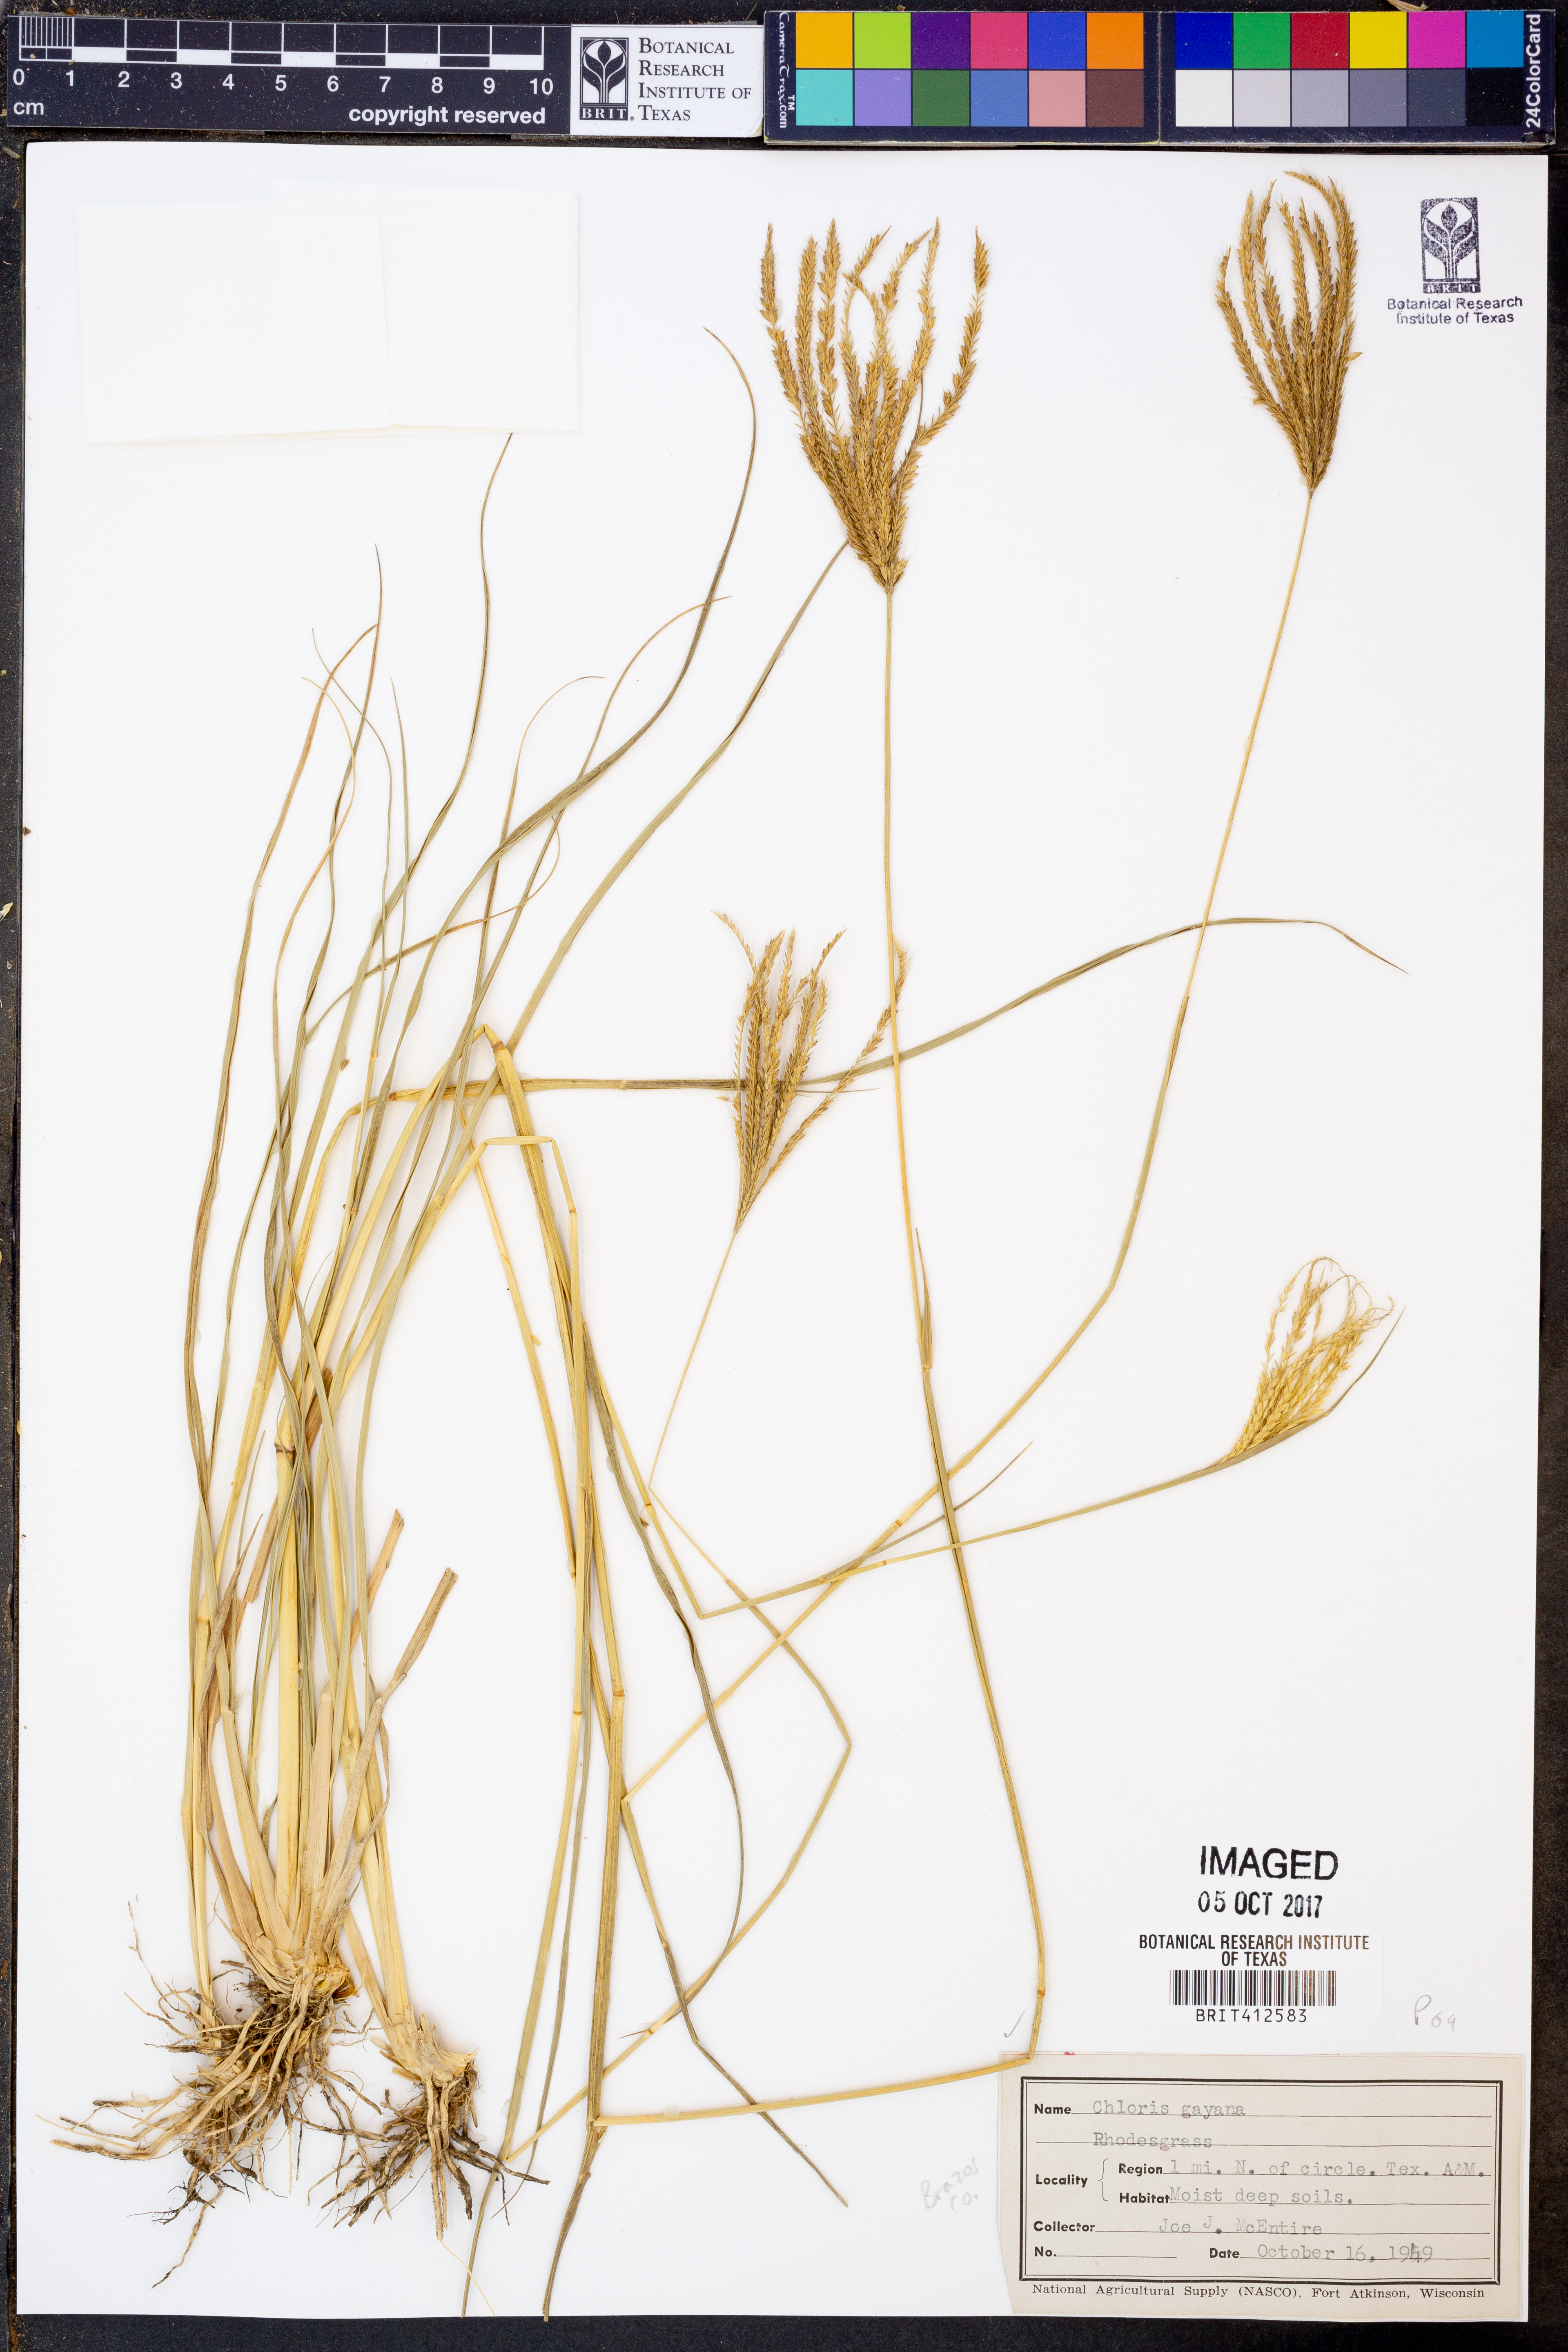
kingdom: Plantae
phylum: Tracheophyta
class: Liliopsida
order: Poales
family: Poaceae
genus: Chloris
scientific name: Chloris gayana
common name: Rhodes grass
